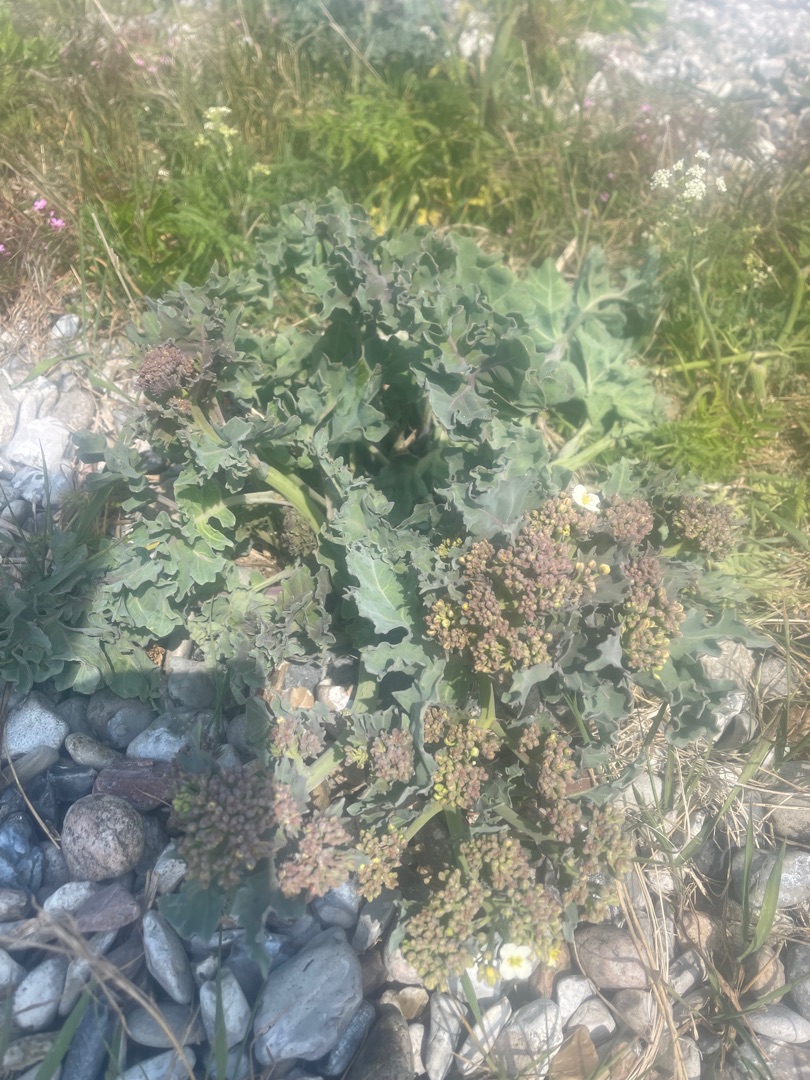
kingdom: Plantae
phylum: Tracheophyta
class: Magnoliopsida
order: Brassicales
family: Brassicaceae
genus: Crambe
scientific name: Crambe maritima
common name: Strandkål
